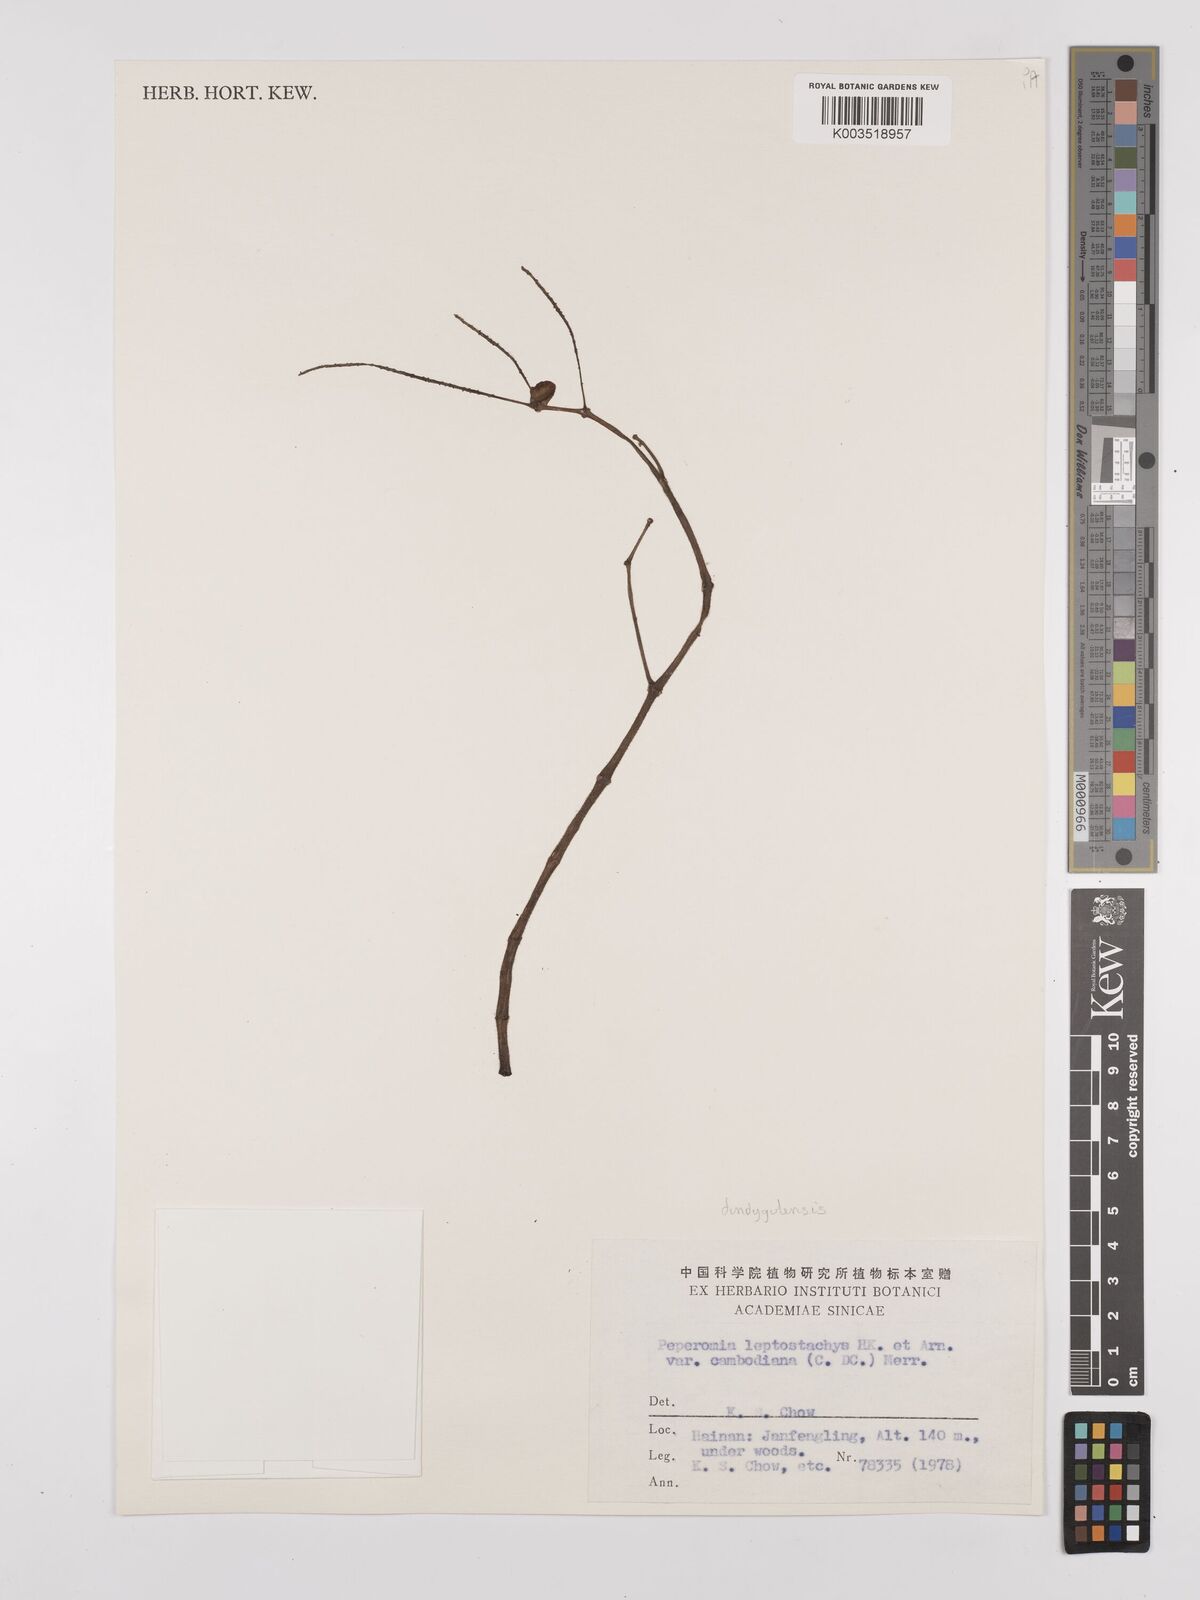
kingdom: Plantae
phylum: Tracheophyta
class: Magnoliopsida
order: Piperales
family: Piperaceae
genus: Peperomia
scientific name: Peperomia leptostachya
